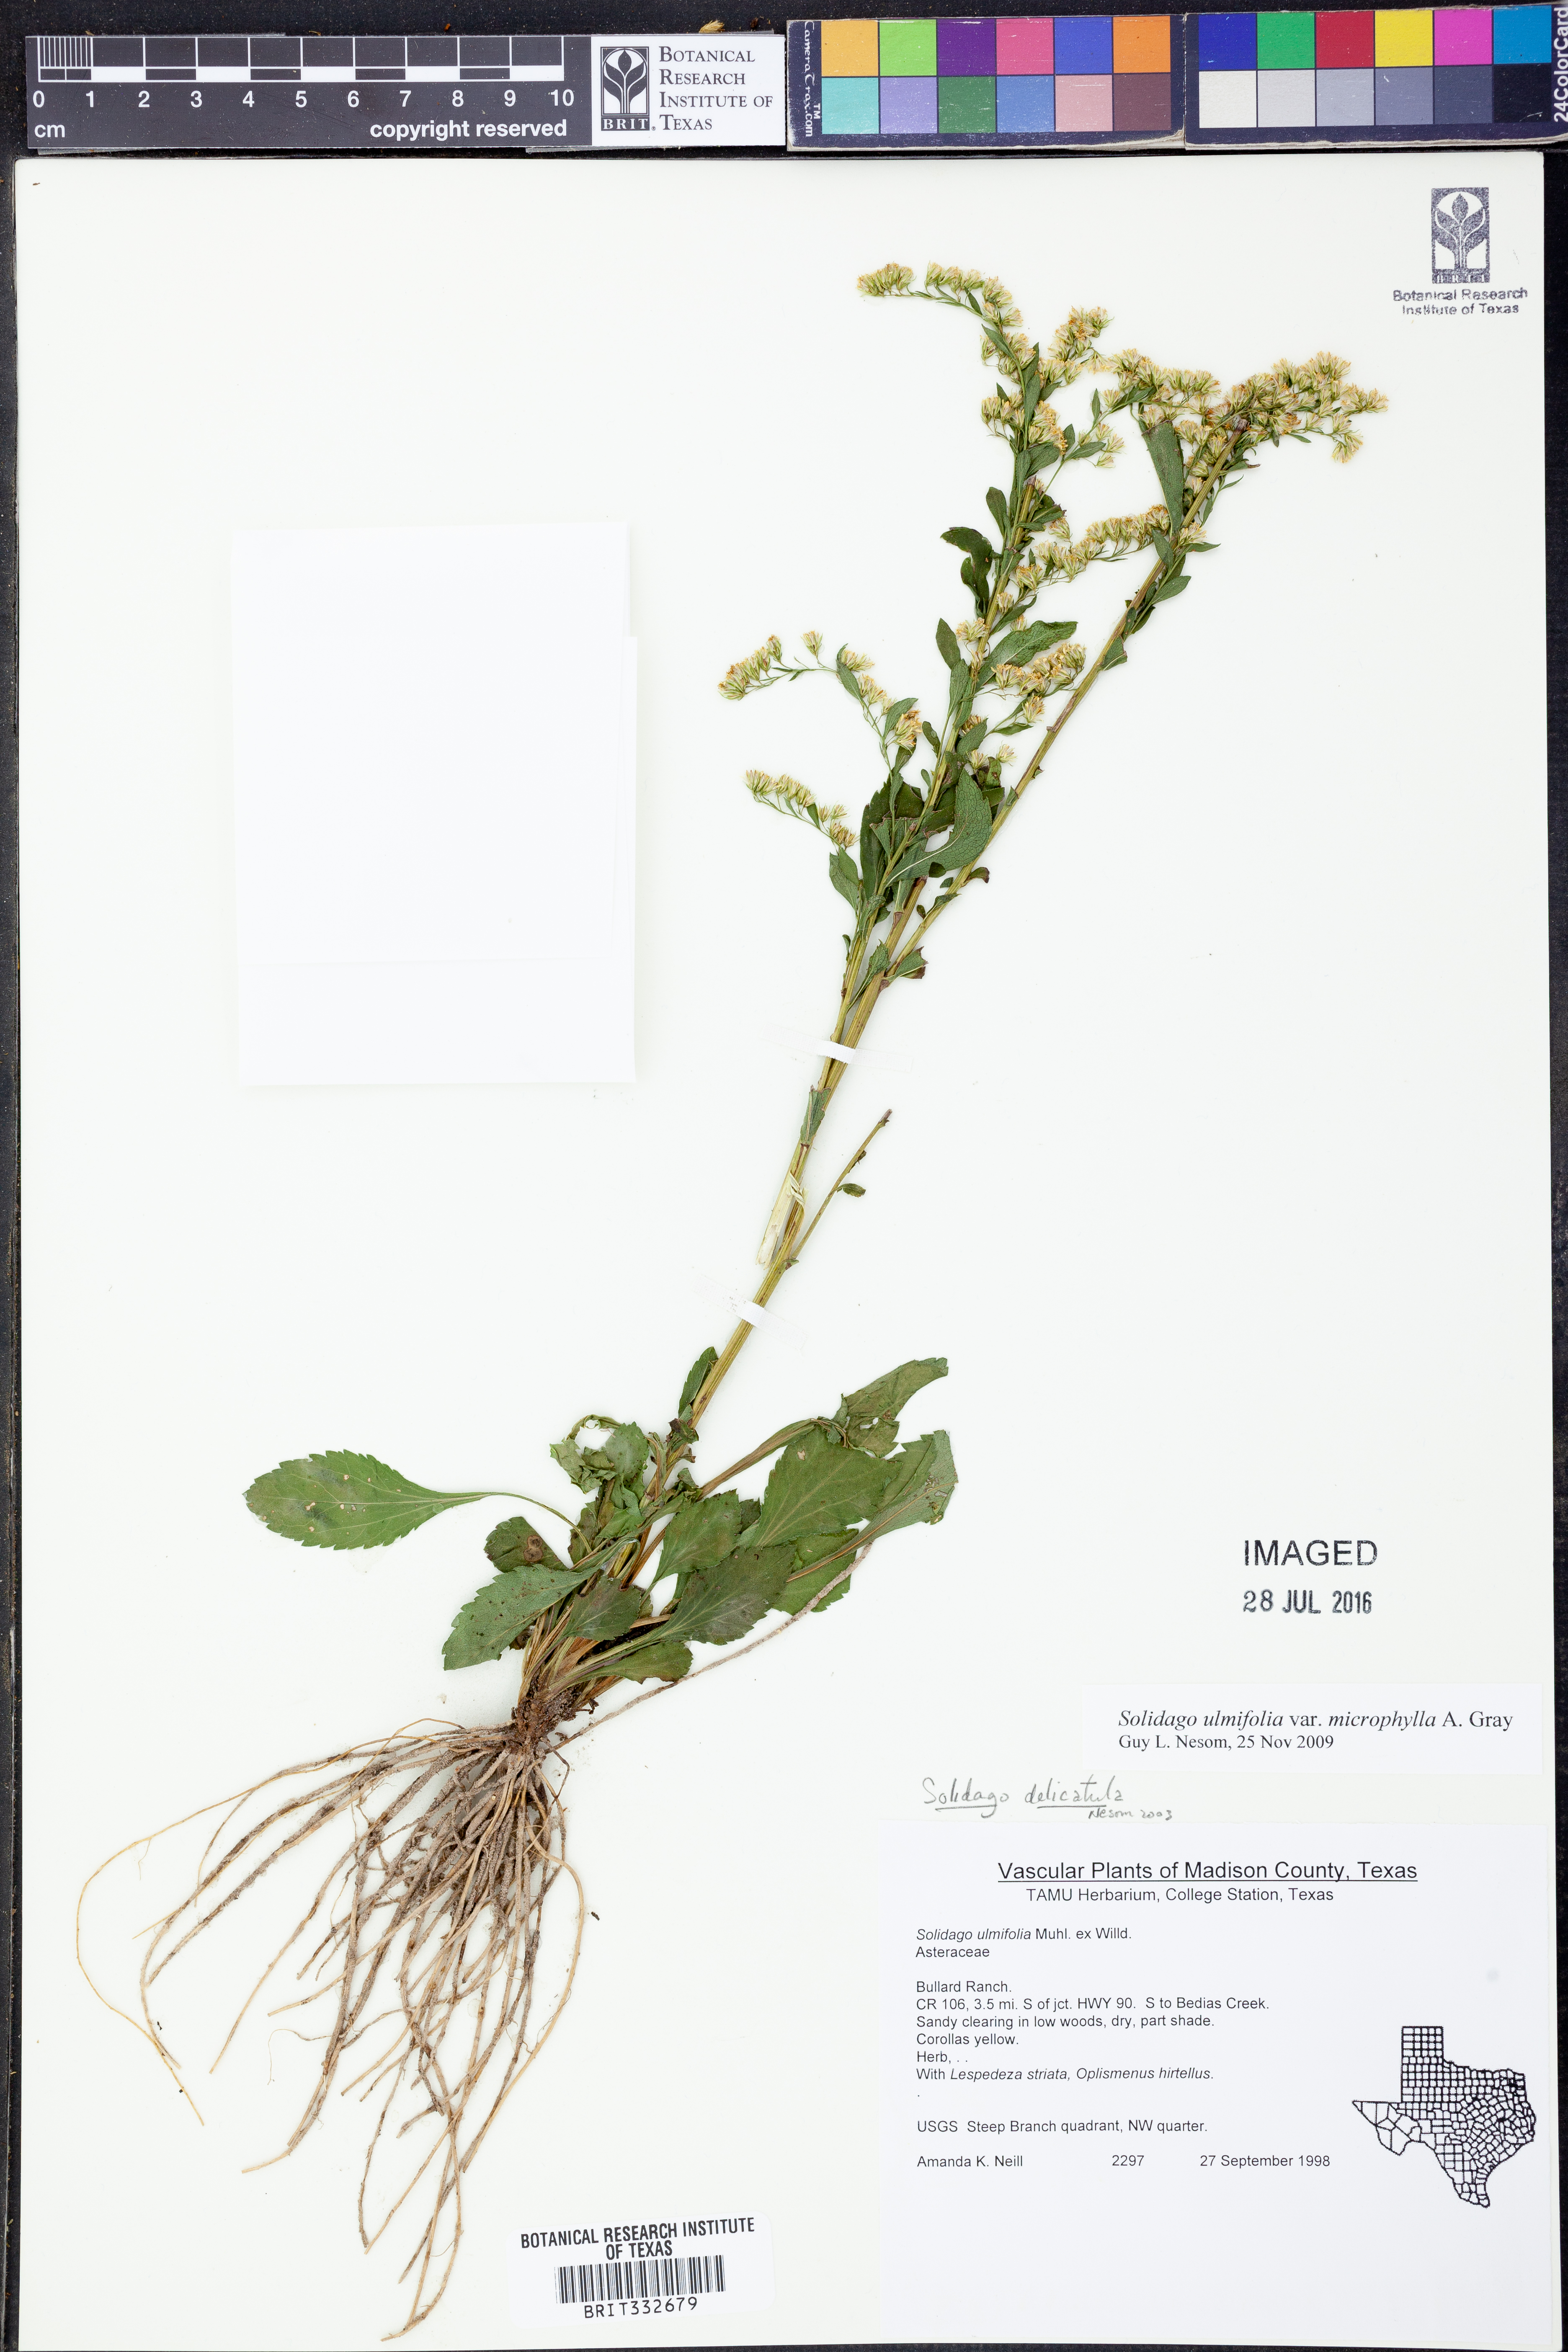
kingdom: Plantae
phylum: Tracheophyta
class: Magnoliopsida
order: Asterales
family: Asteraceae
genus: Solidago
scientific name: Solidago delicatula
